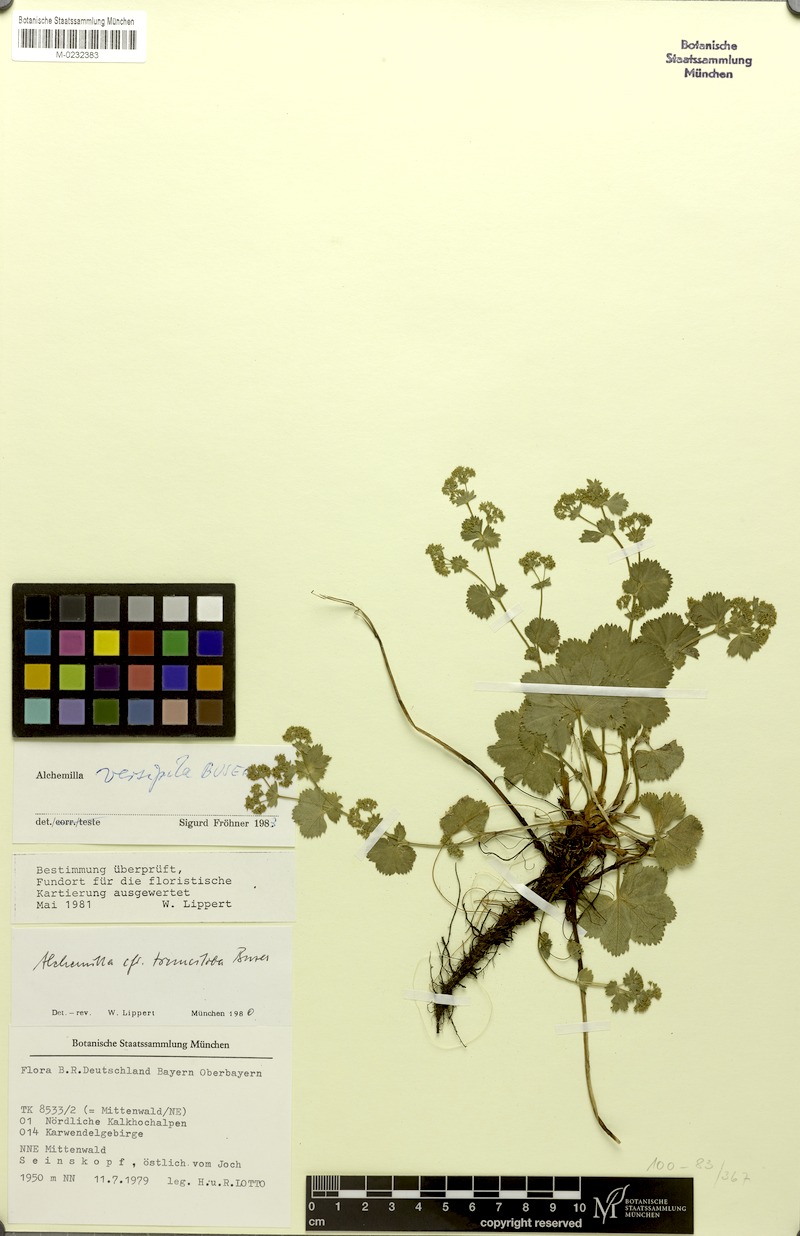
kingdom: Plantae
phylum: Tracheophyta
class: Magnoliopsida
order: Rosales
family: Rosaceae
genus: Alchemilla
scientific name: Alchemilla versipila
